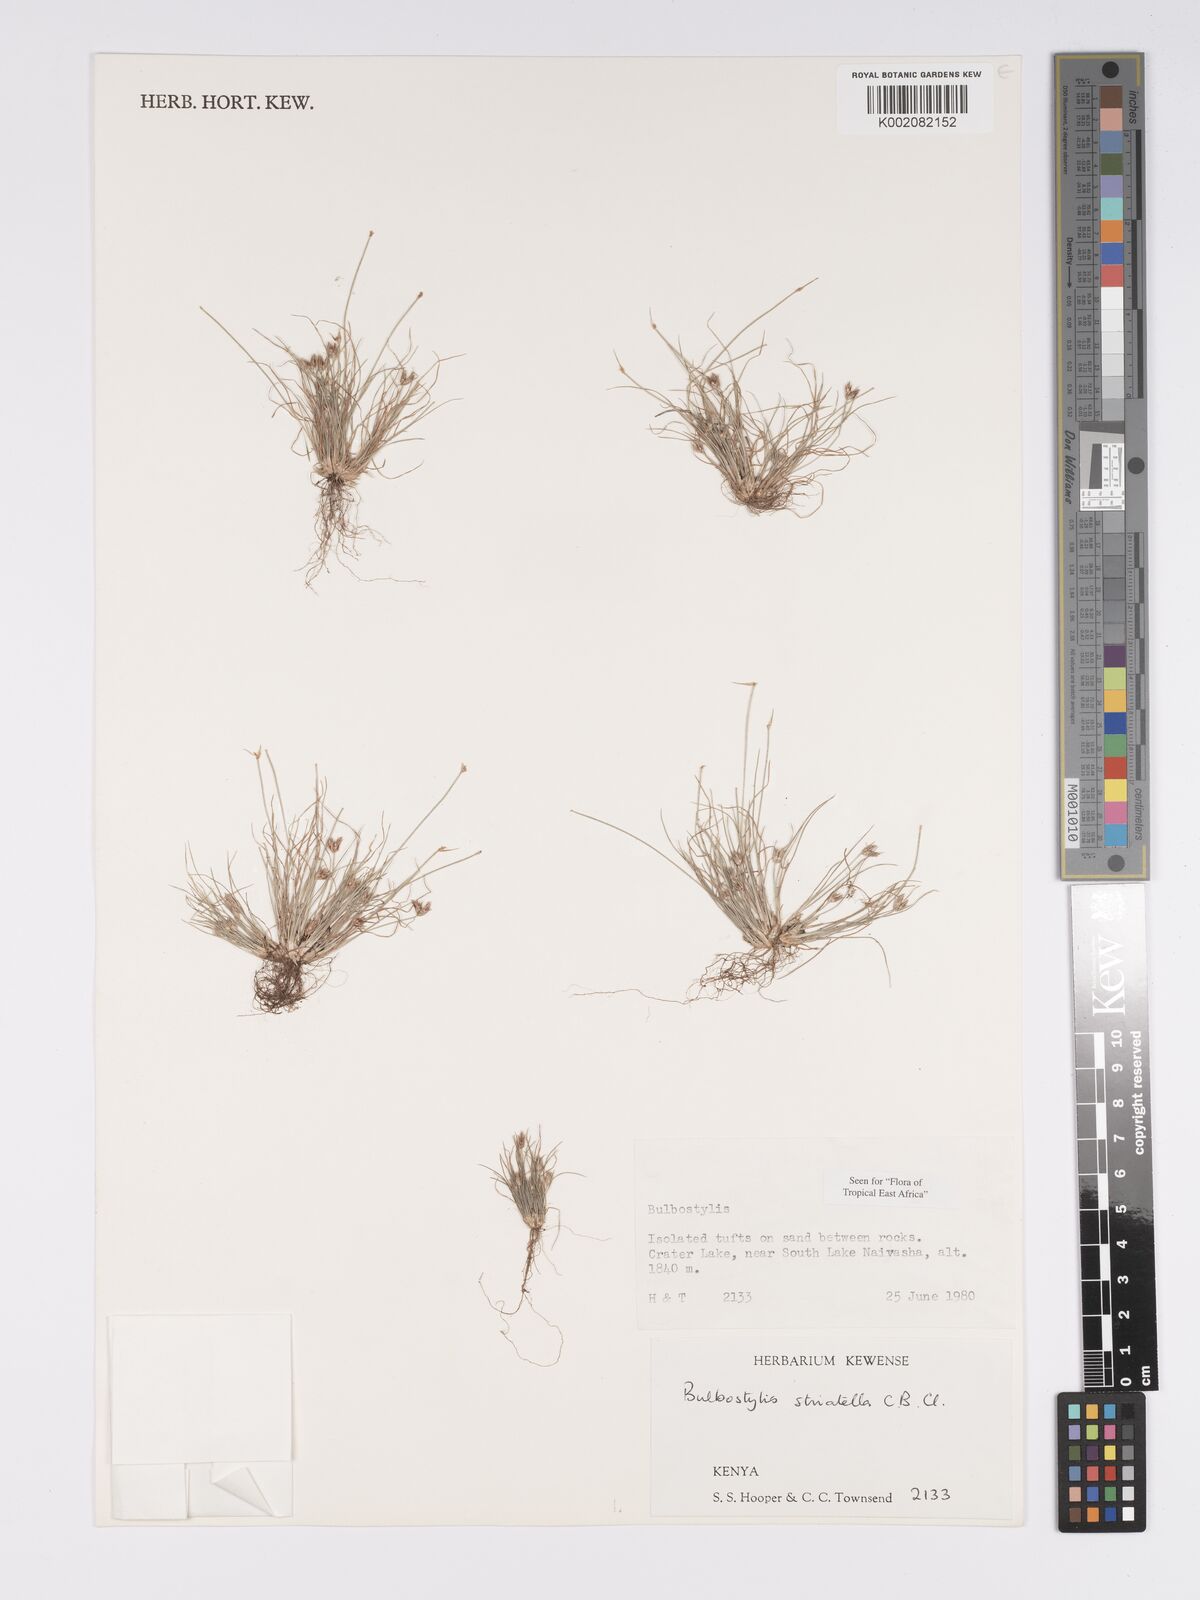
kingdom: Plantae
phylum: Tracheophyta
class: Liliopsida
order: Poales
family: Cyperaceae
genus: Bulbostylis
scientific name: Bulbostylis humilis
